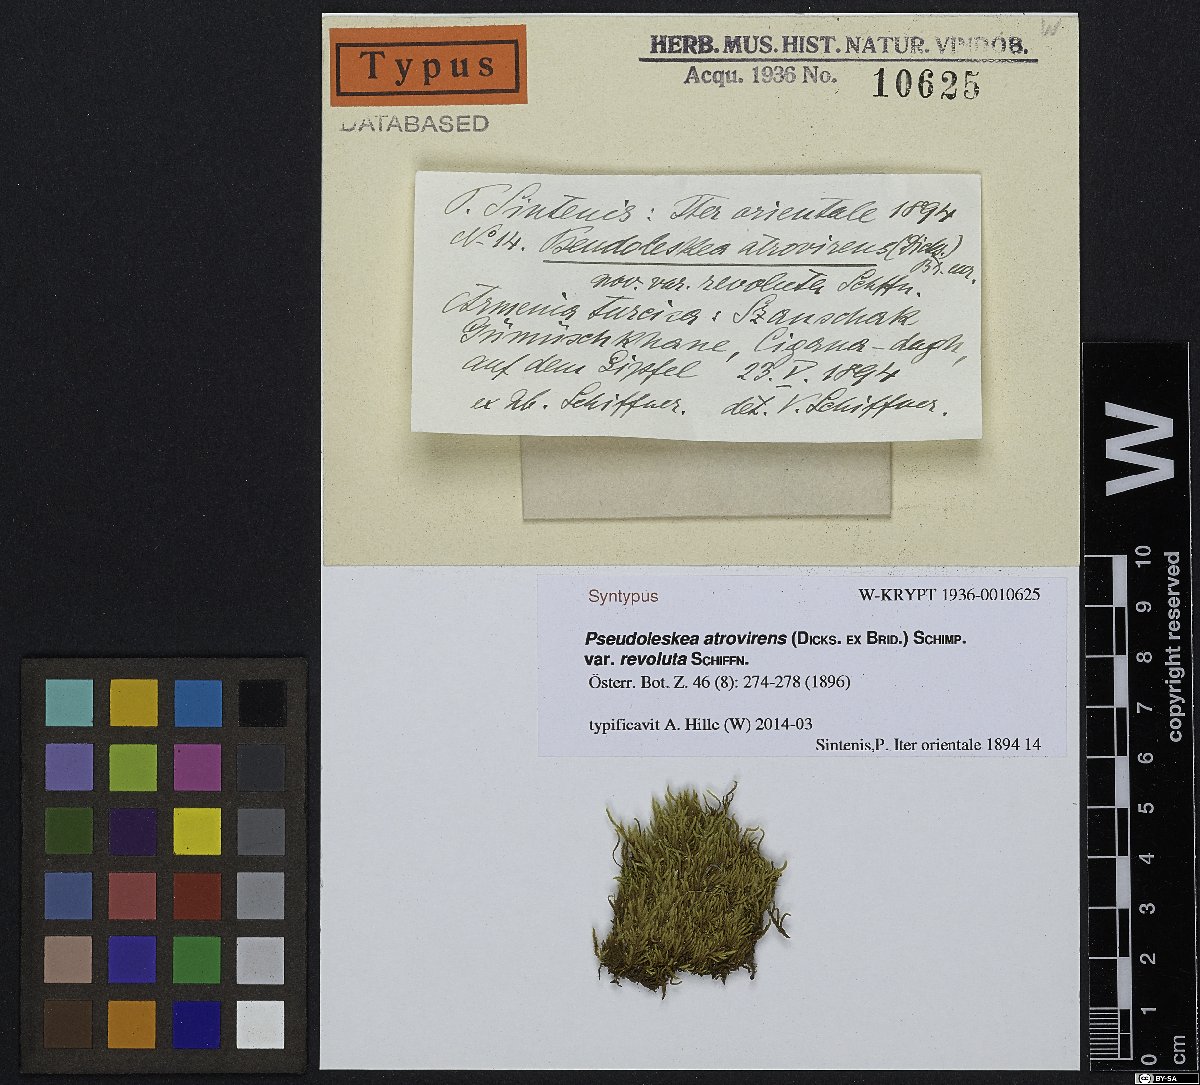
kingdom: Plantae
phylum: Bryophyta
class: Bryopsida
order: Hypnales
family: Pseudoleskeaceae
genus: Lescuraea
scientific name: Lescuraea incurvata
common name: Brown mountain leskea
